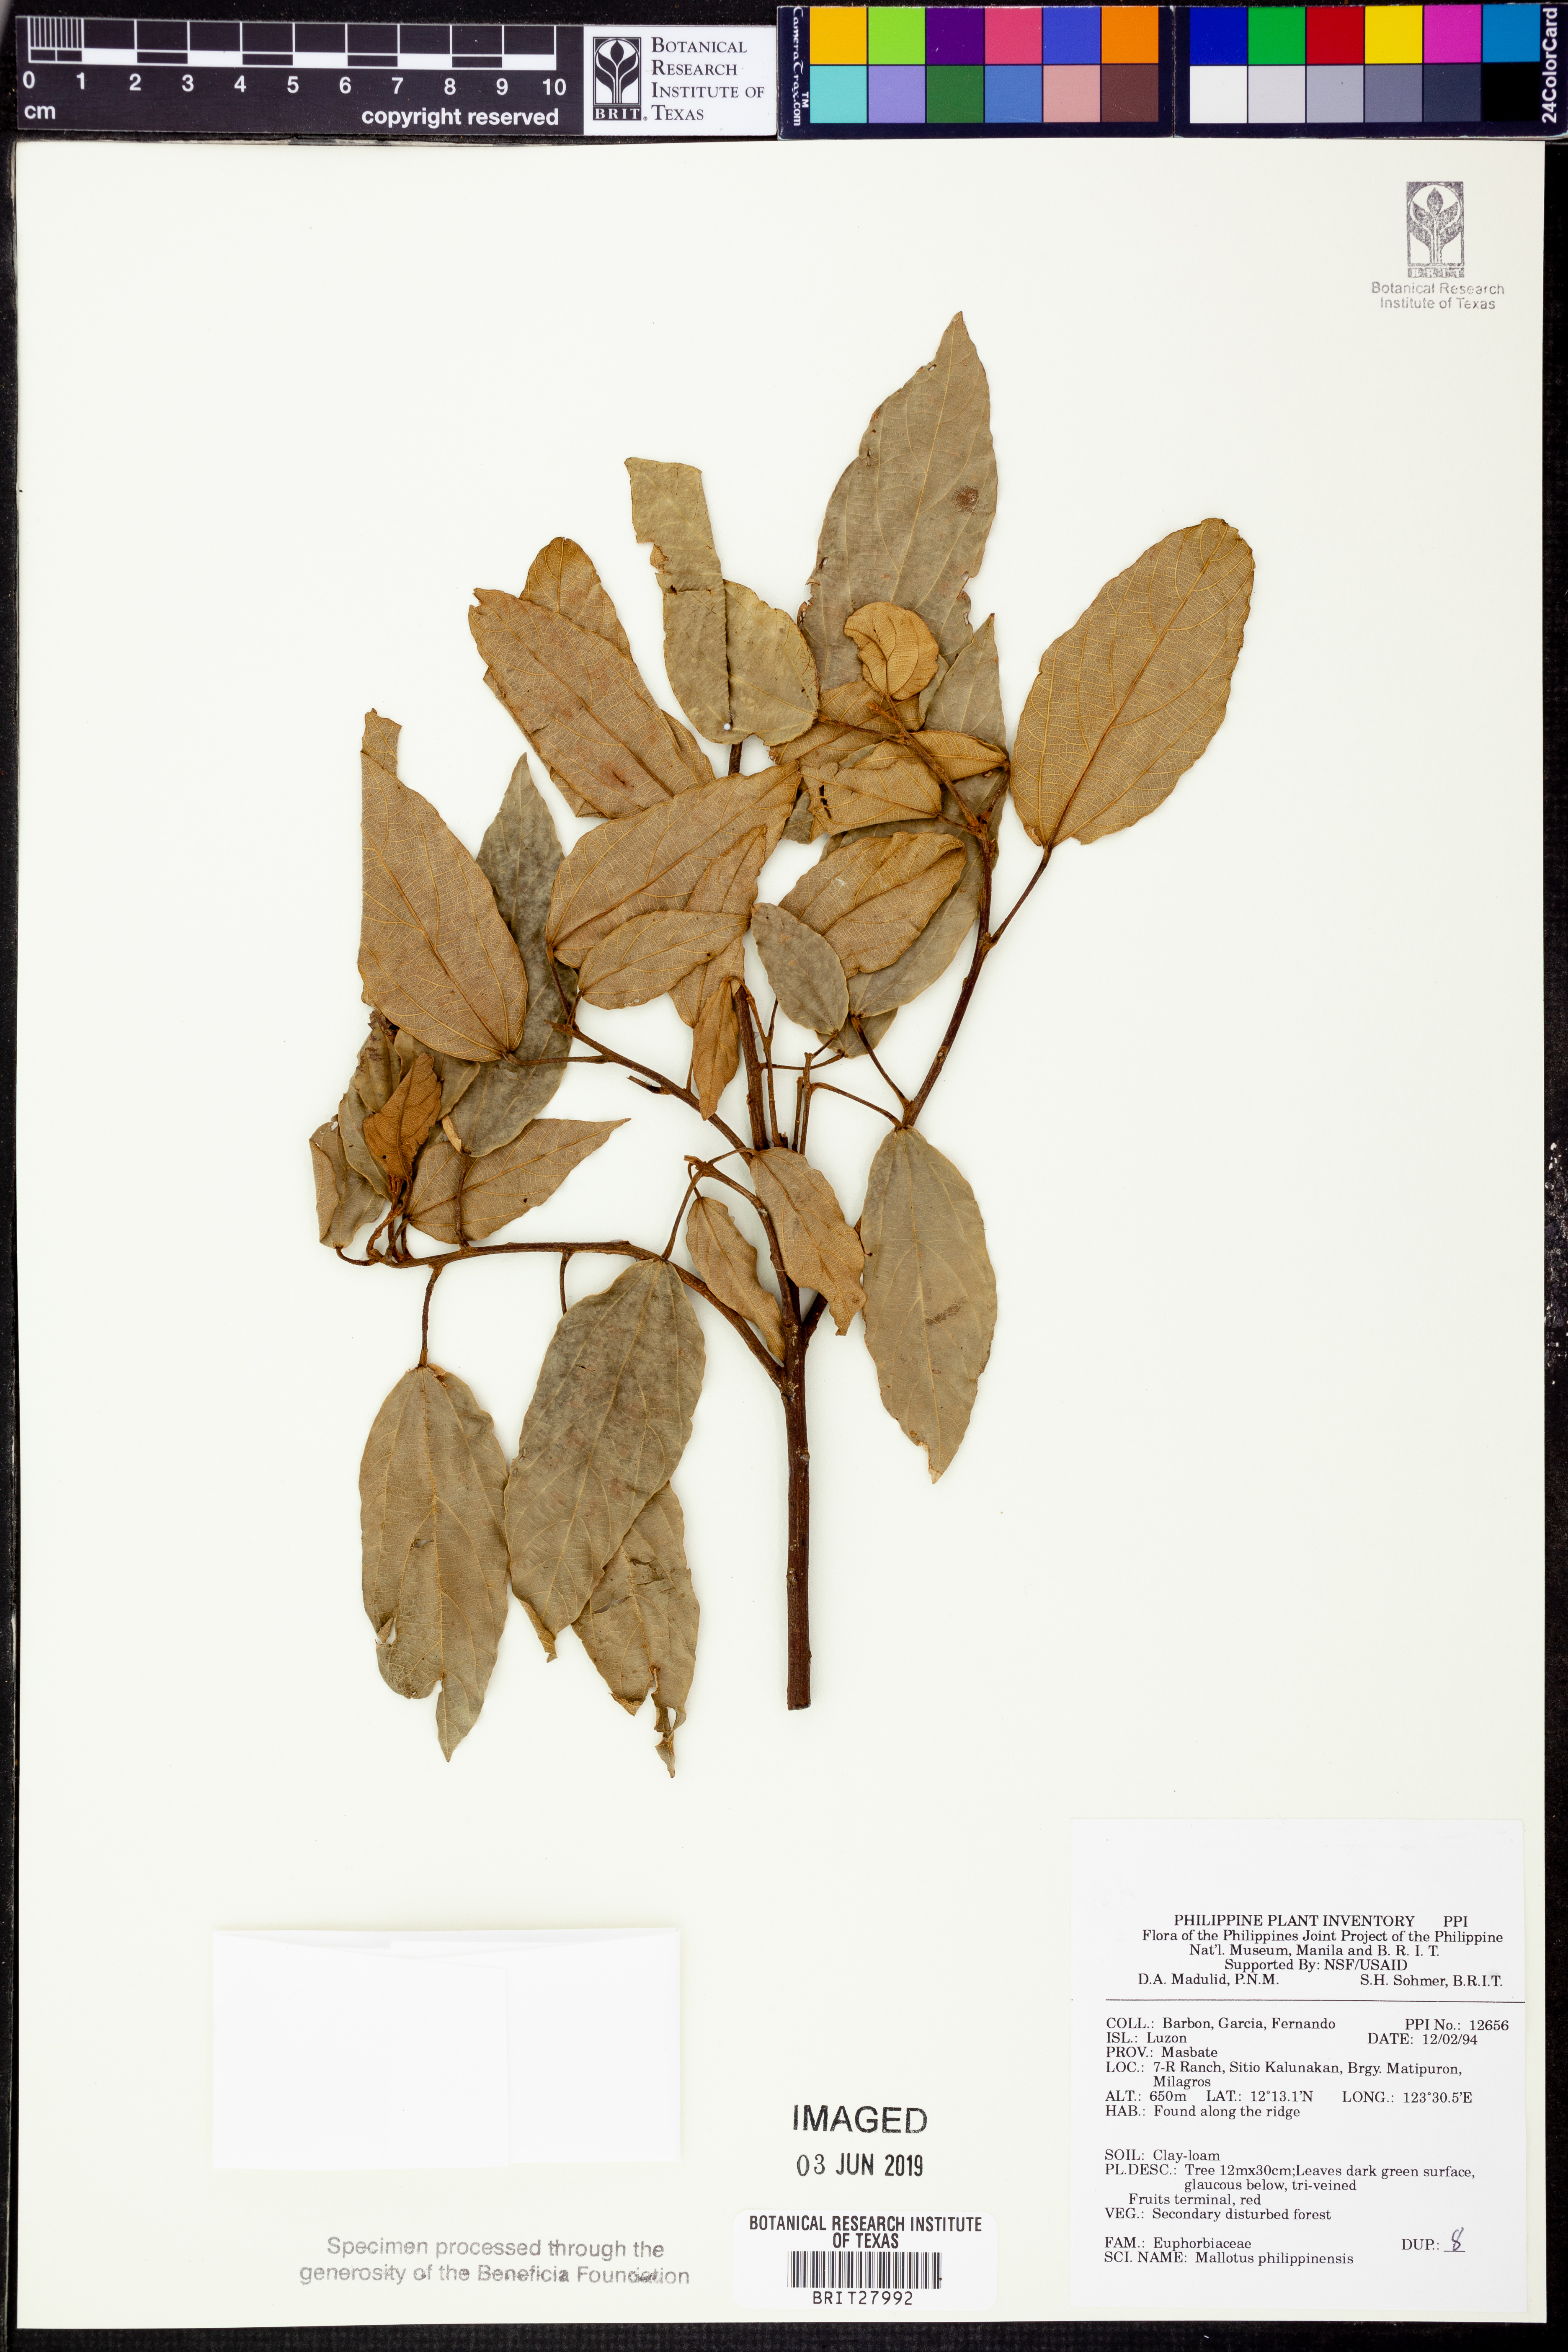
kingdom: Plantae
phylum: Tracheophyta
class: Magnoliopsida
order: Malpighiales
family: Euphorbiaceae
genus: Mallotus
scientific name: Mallotus philippensis
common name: Kamala tree
